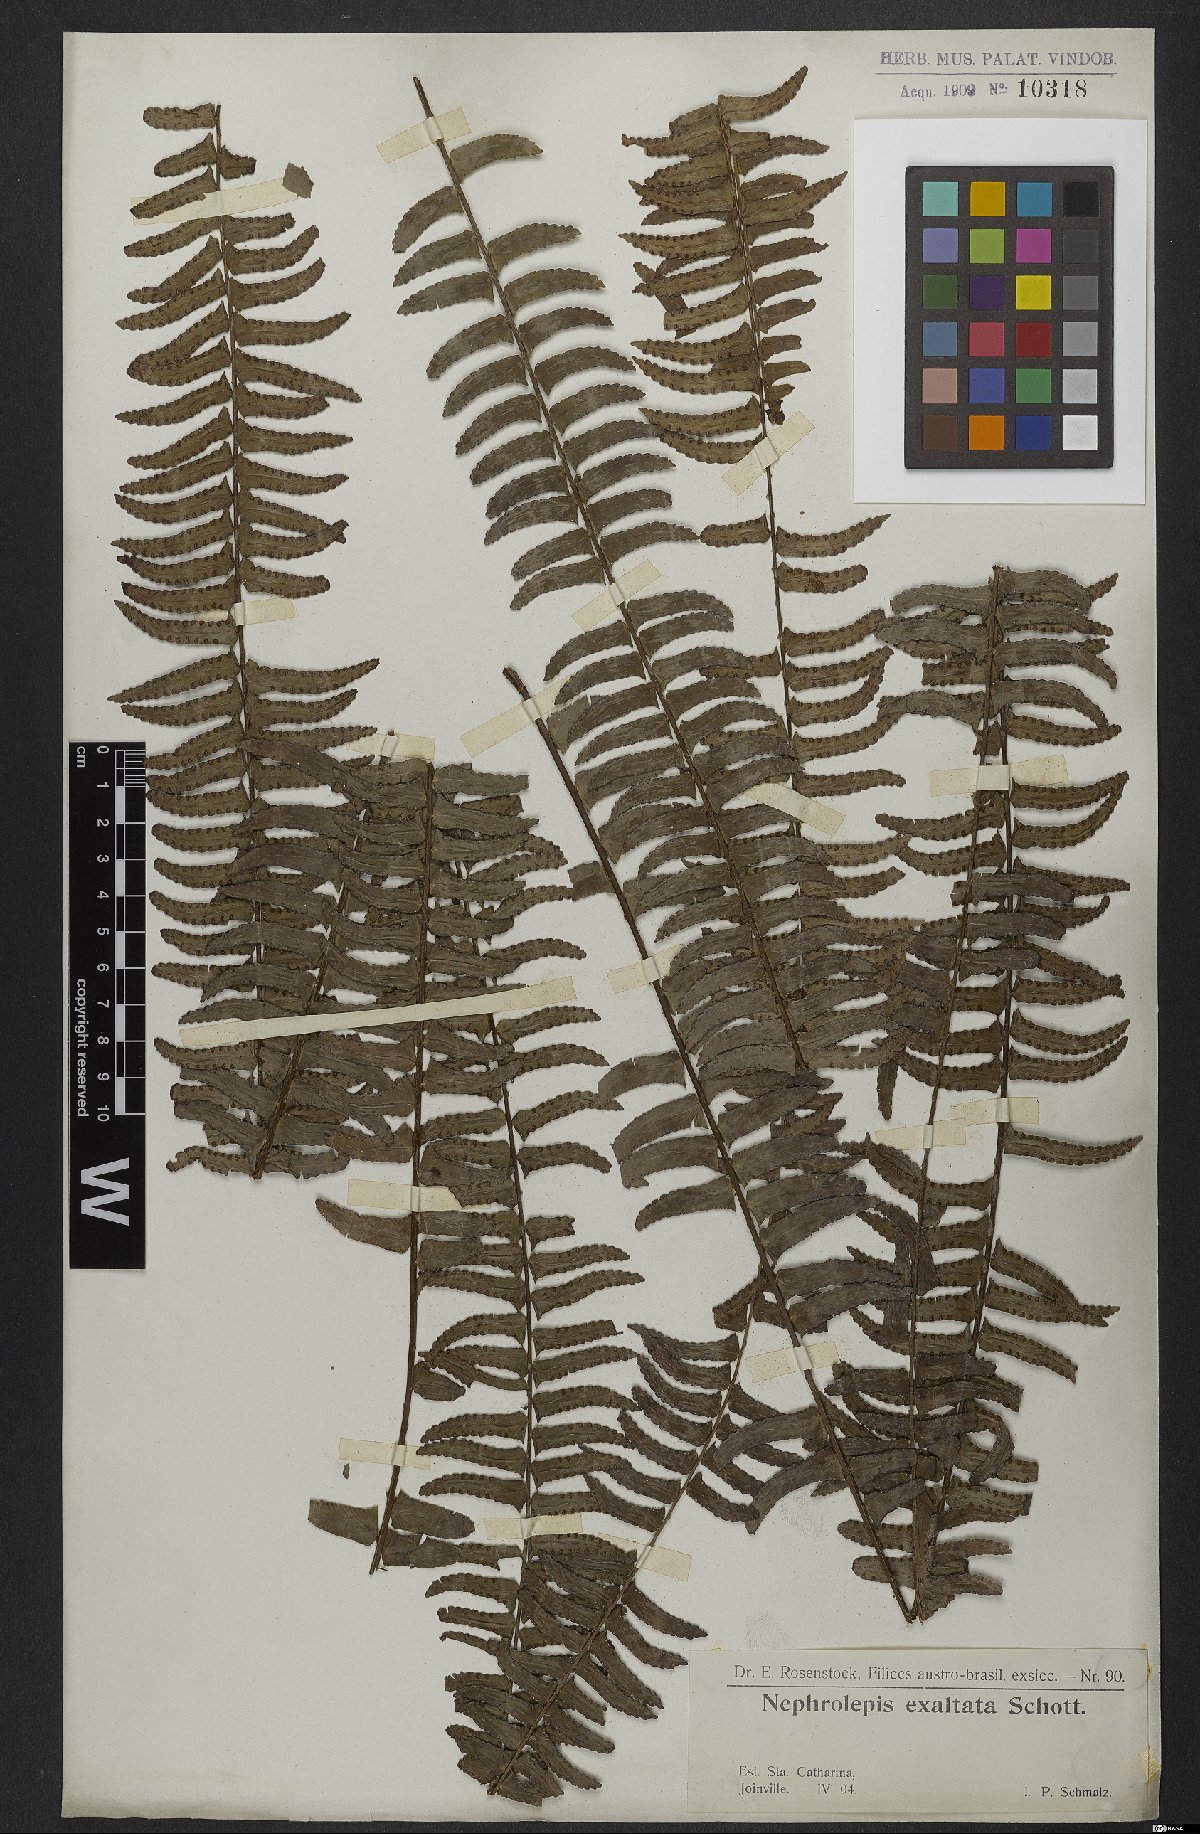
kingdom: Plantae
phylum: Tracheophyta
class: Polypodiopsida
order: Polypodiales
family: Nephrolepidaceae
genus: Nephrolepis
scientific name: Nephrolepis exaltata
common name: Sword fern
